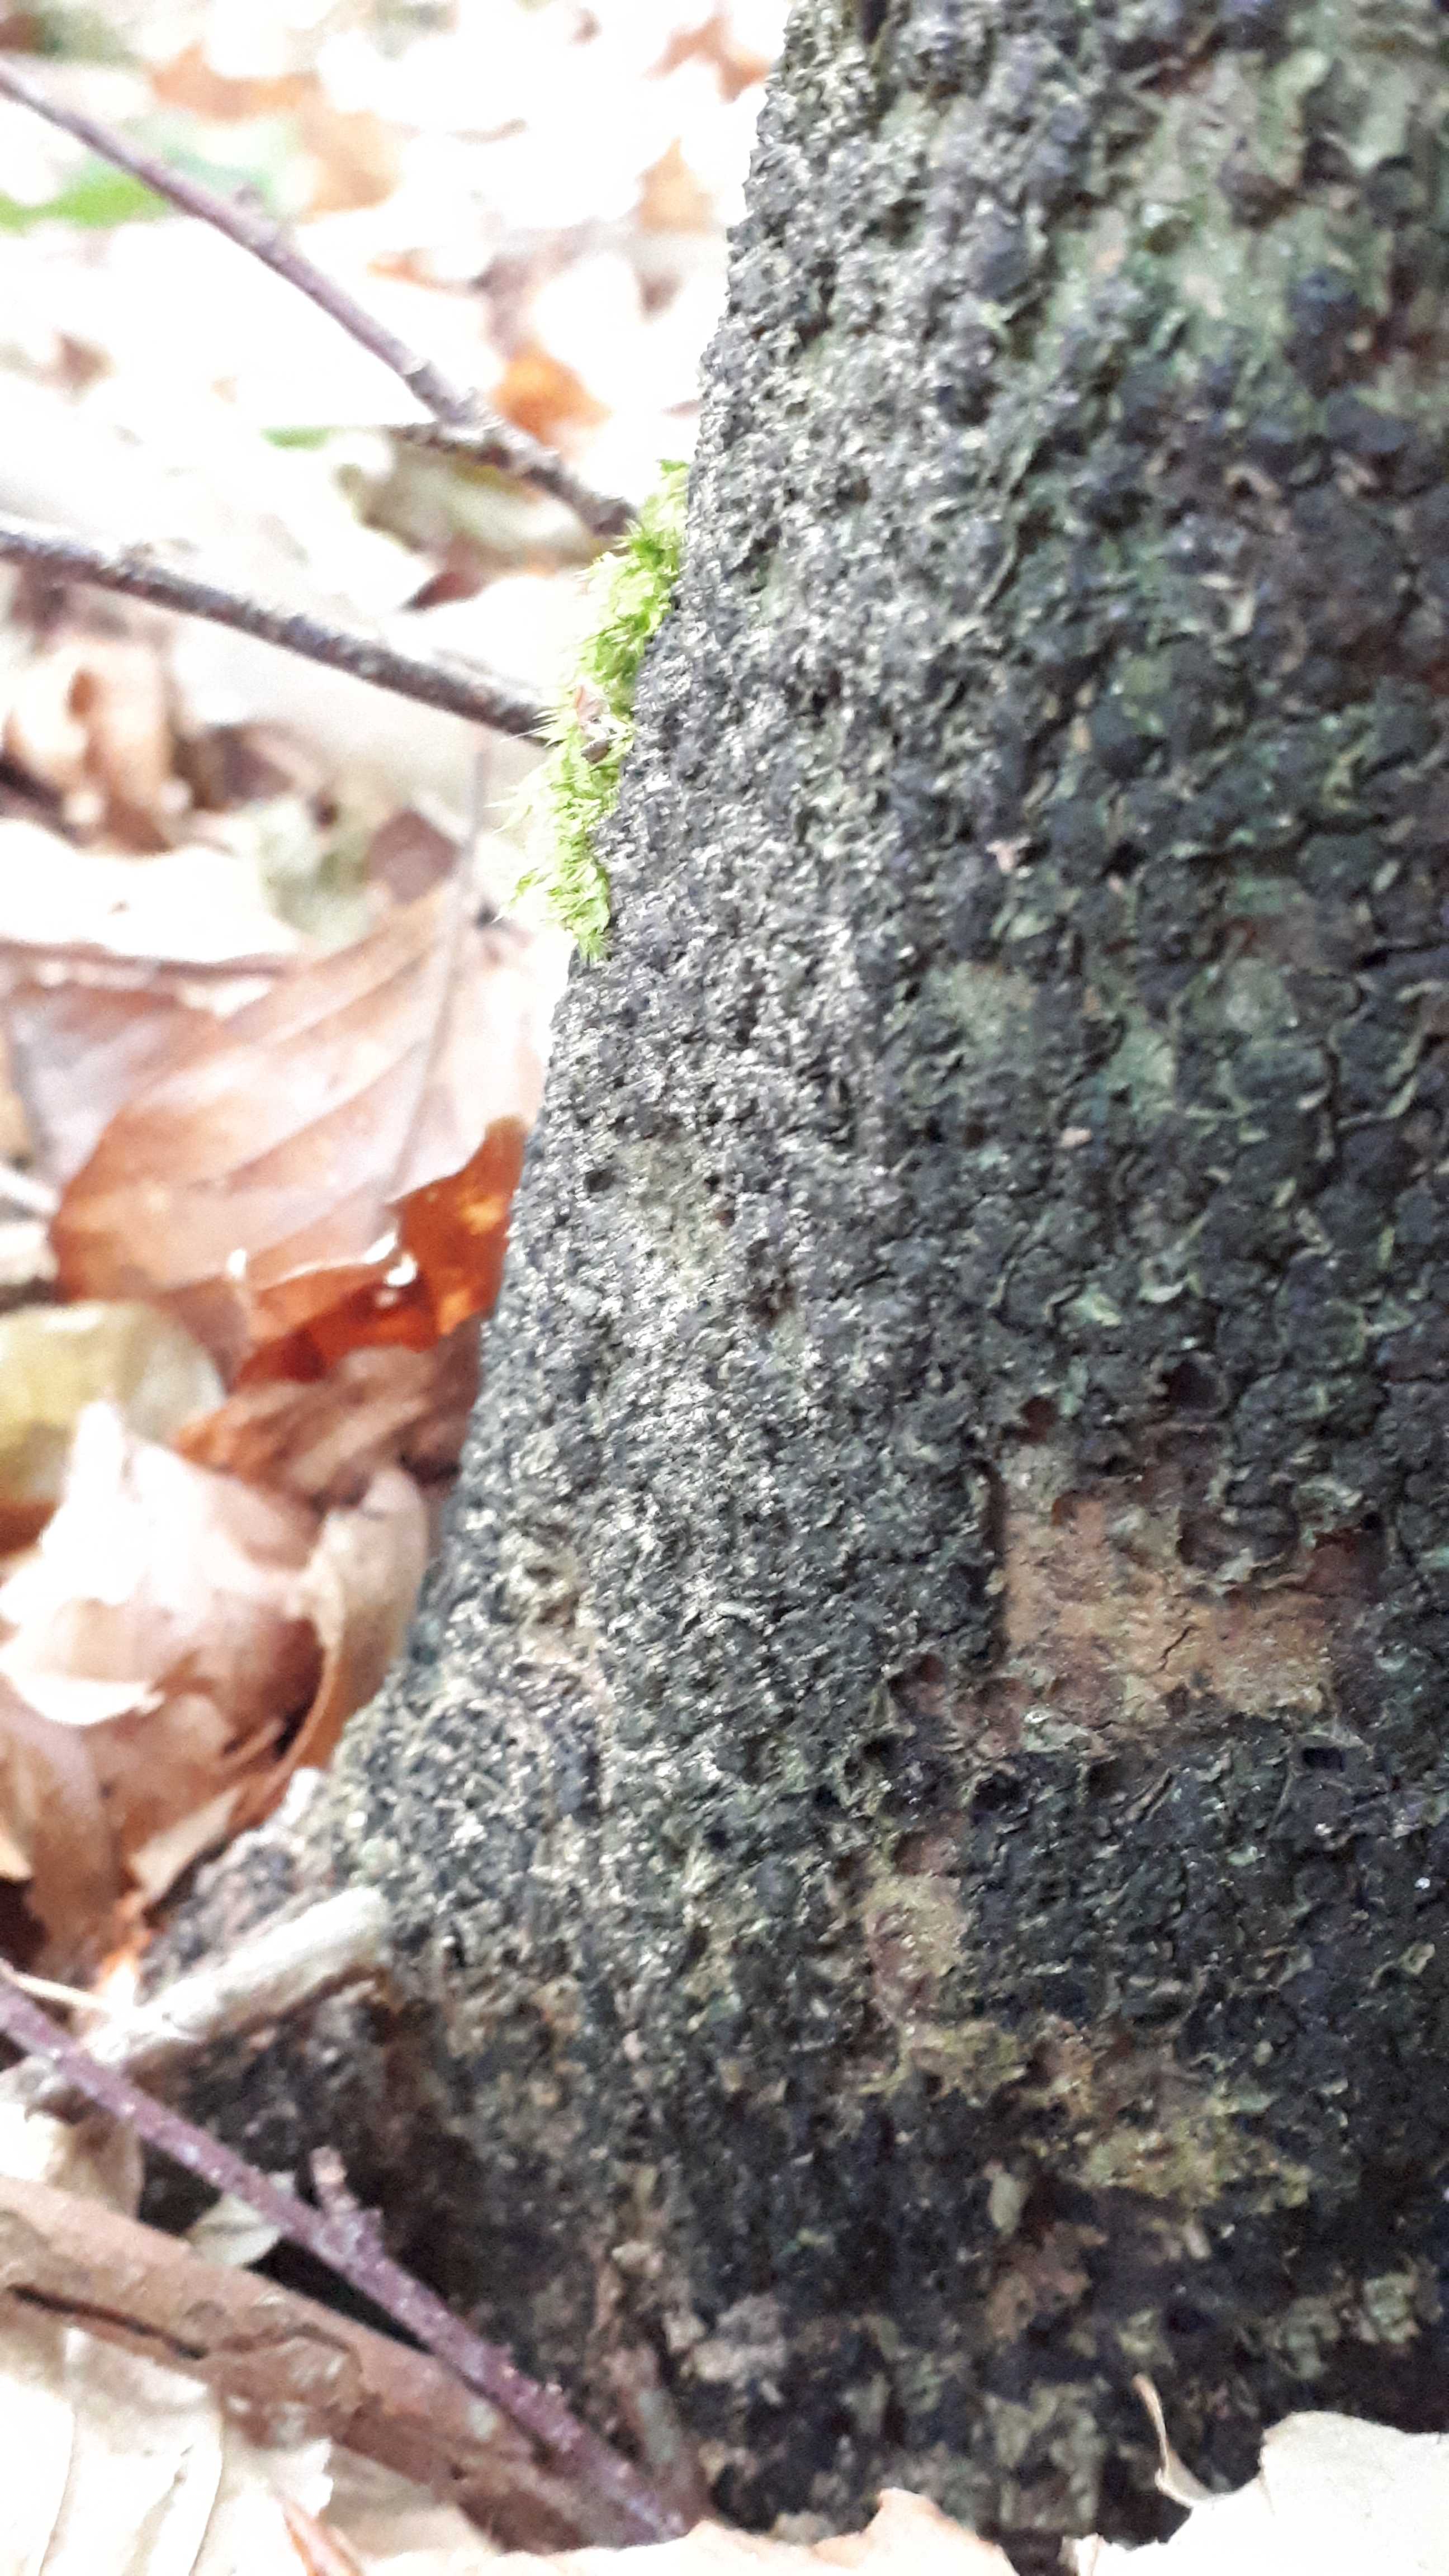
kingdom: Fungi
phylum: Ascomycota
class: Sordariomycetes
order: Xylariales
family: Melogrammataceae
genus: Melogramma
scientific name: Melogramma spiniferum
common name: bøgefod-kulhals
